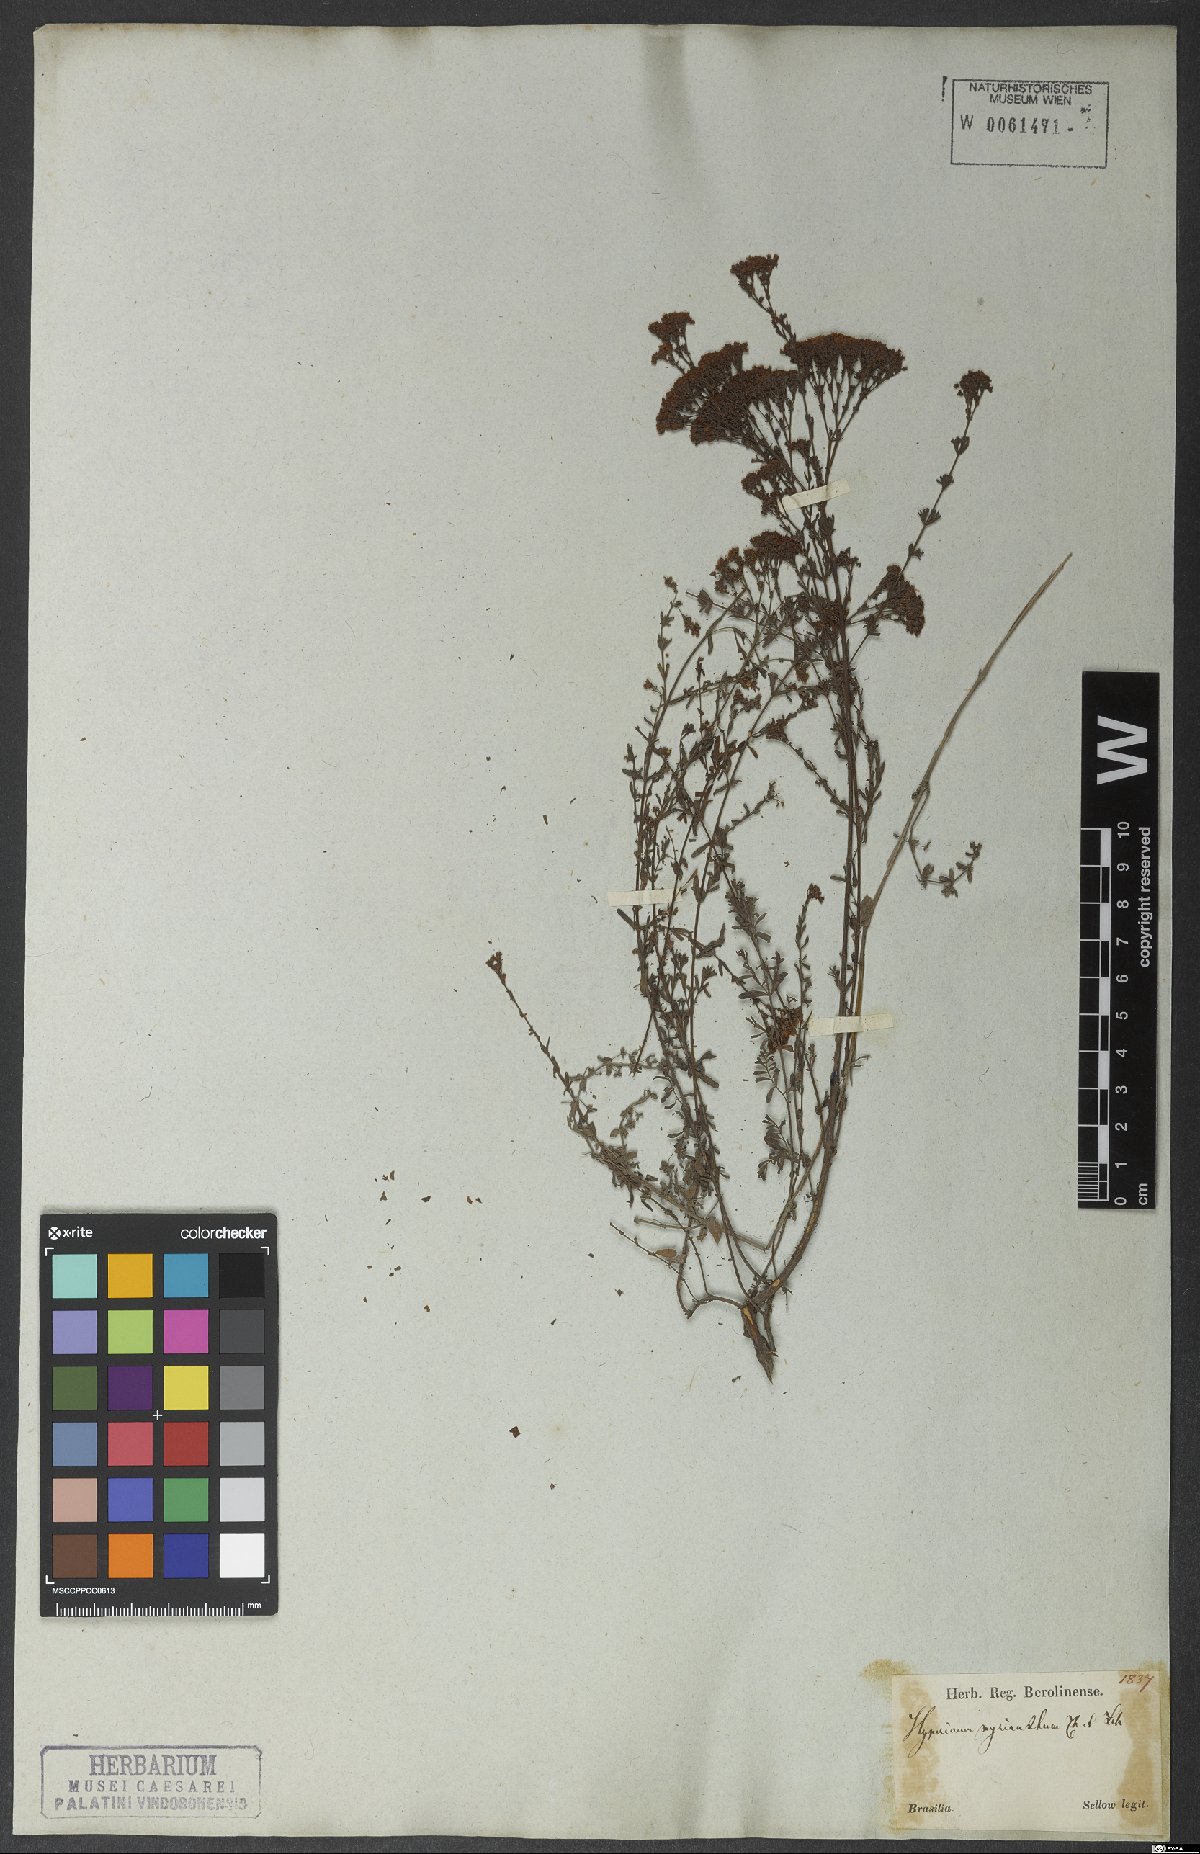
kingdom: Plantae
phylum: Tracheophyta
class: Magnoliopsida
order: Malpighiales
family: Hypericaceae
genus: Hypericum
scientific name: Hypericum myrianthum
